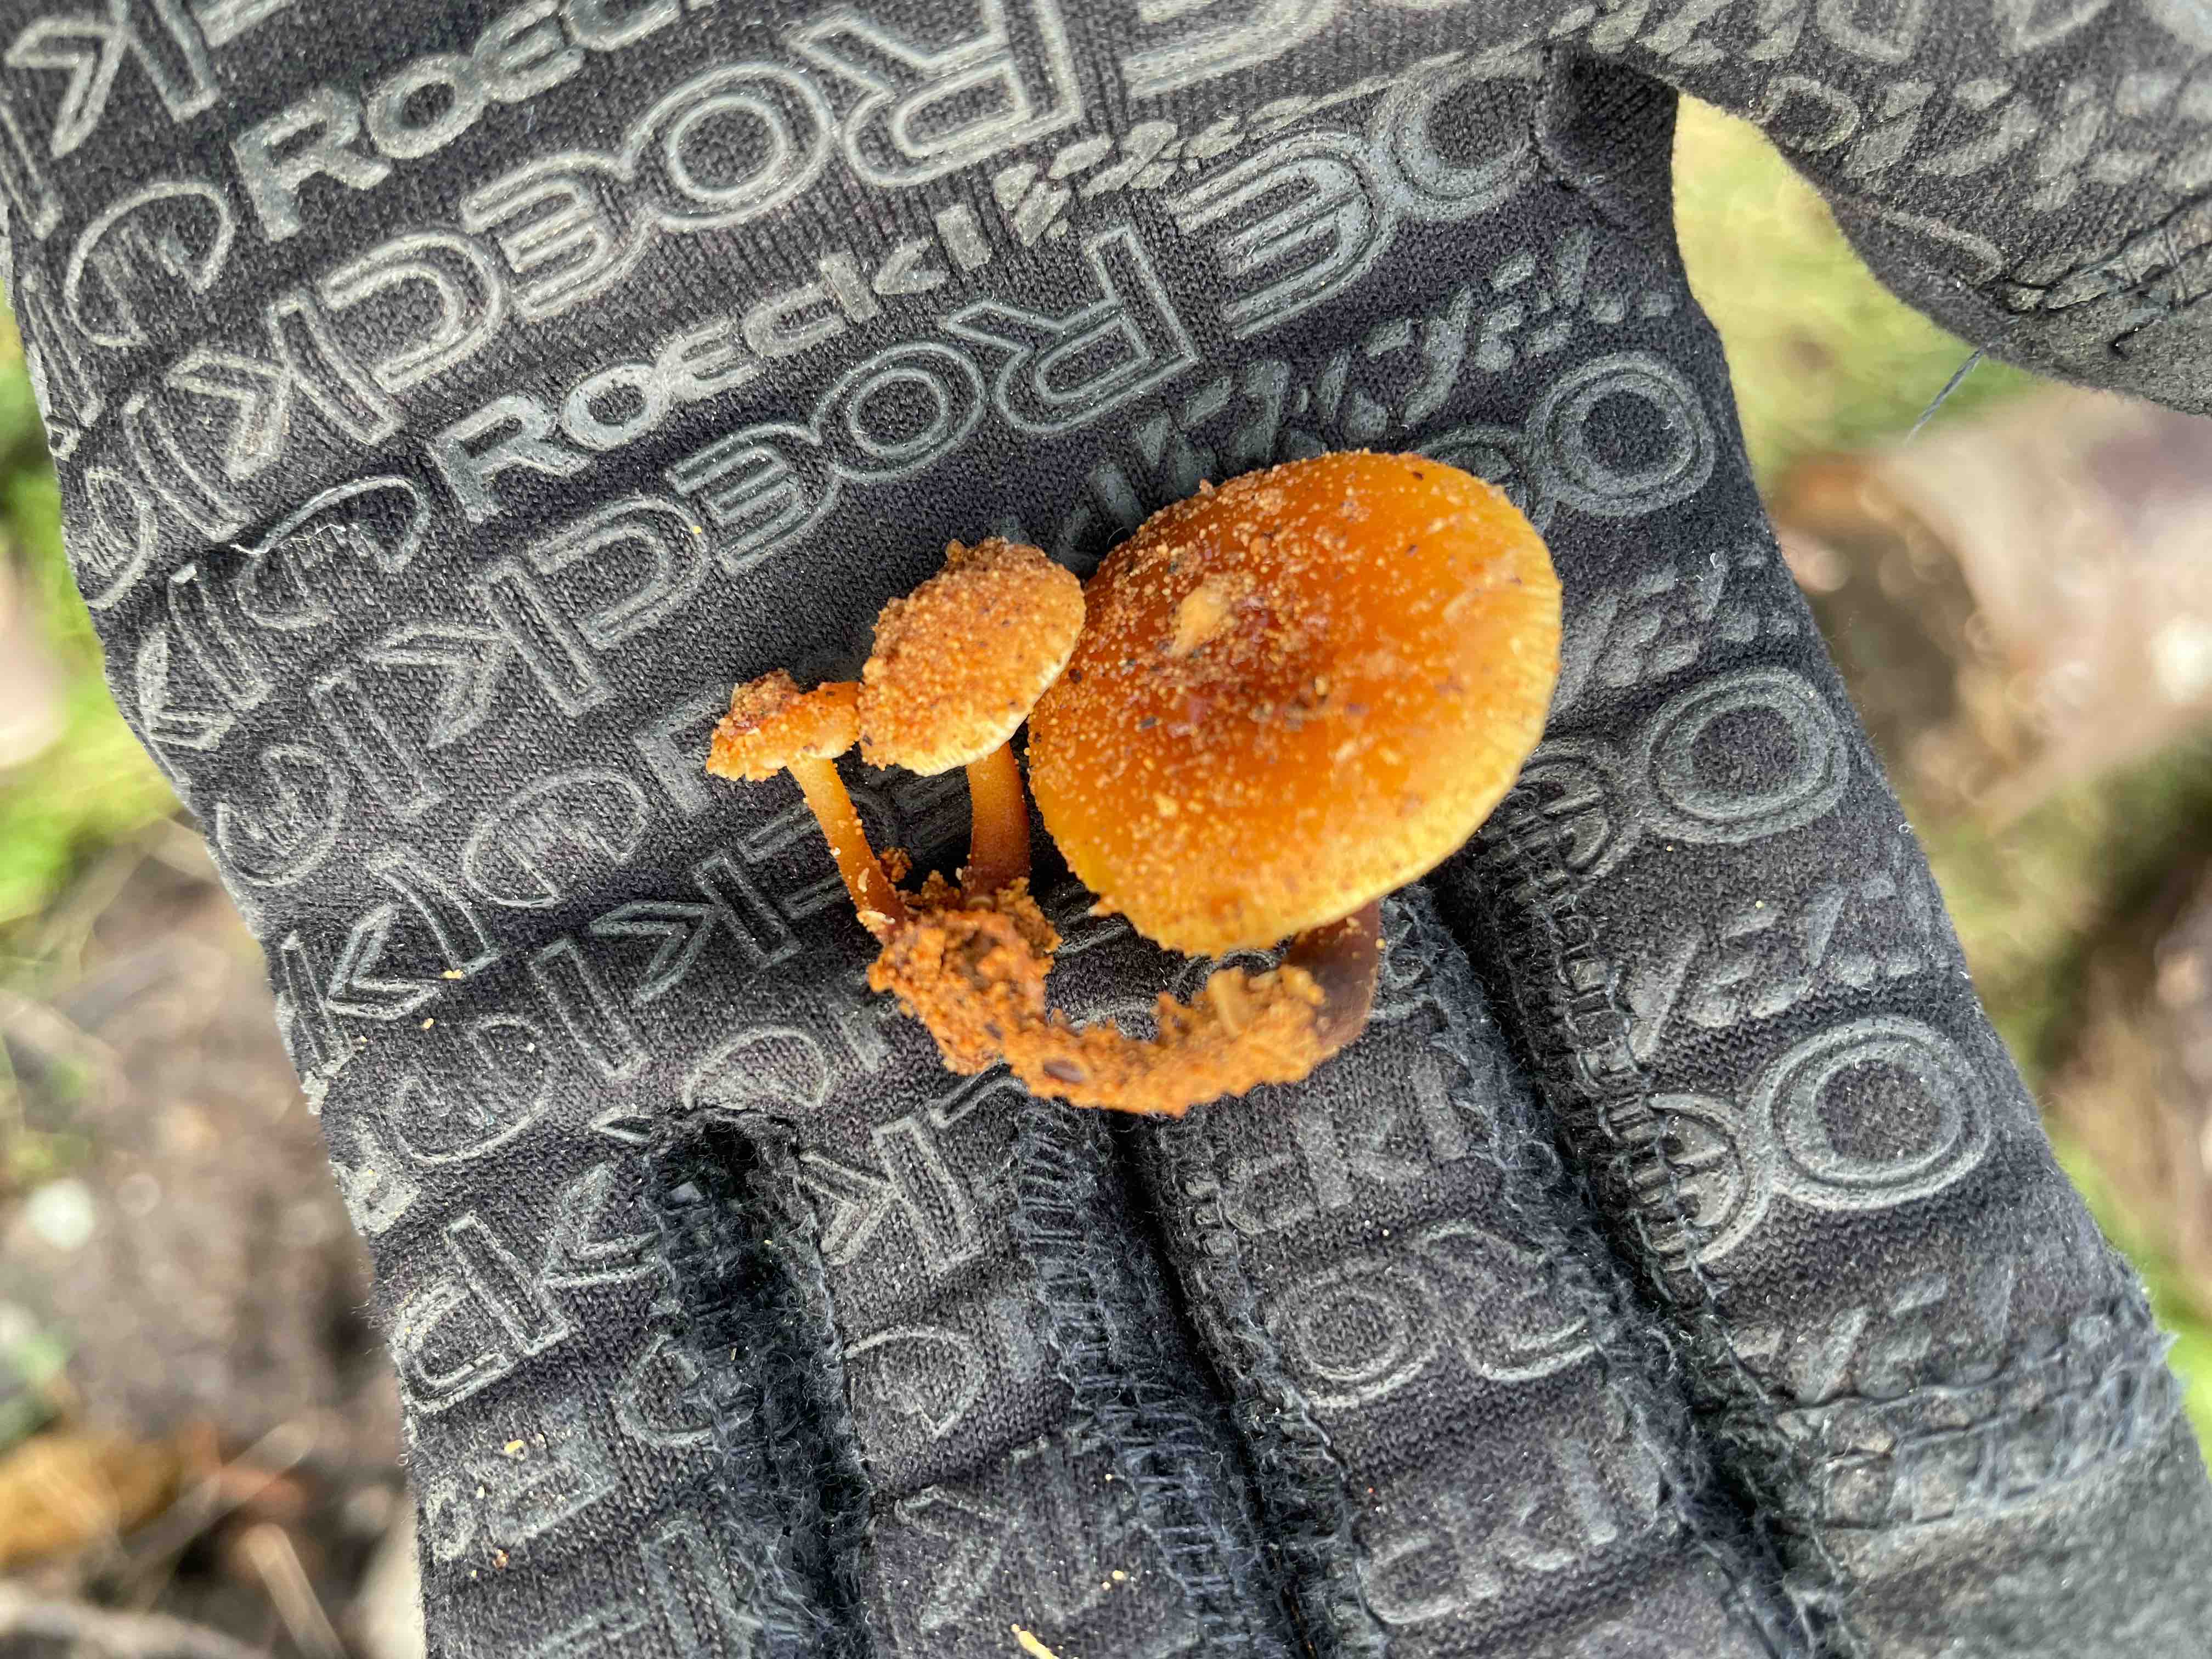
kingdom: Fungi
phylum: Basidiomycota
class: Agaricomycetes
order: Agaricales
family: Physalacriaceae
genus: Flammulina
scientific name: Flammulina
